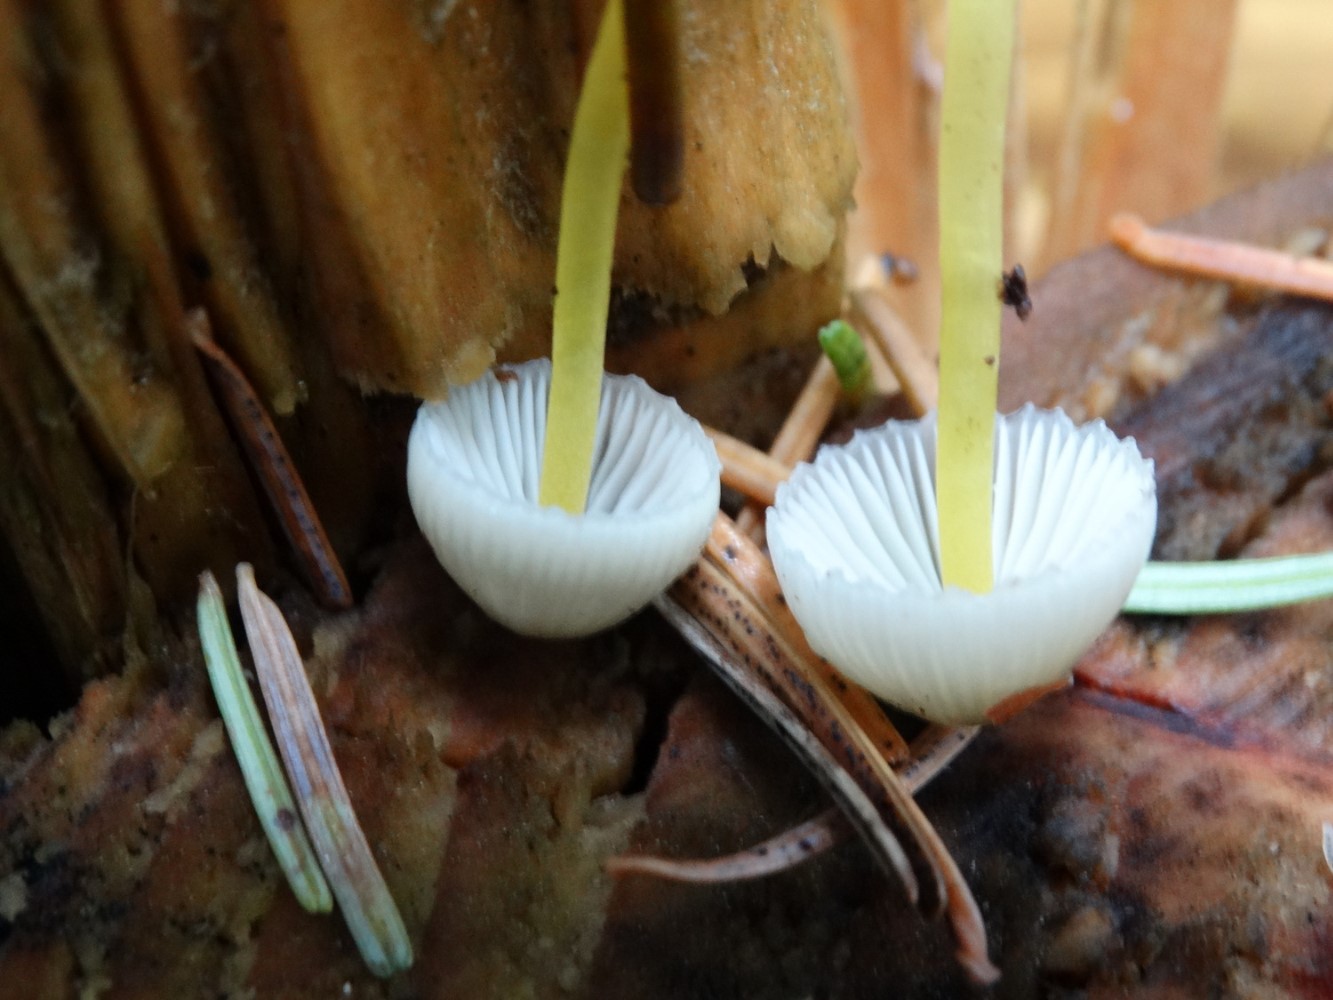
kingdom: Fungi
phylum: Basidiomycota
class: Agaricomycetes
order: Agaricales
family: Mycenaceae
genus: Mycena
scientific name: Mycena epipterygia
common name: gulstokket huesvamp
